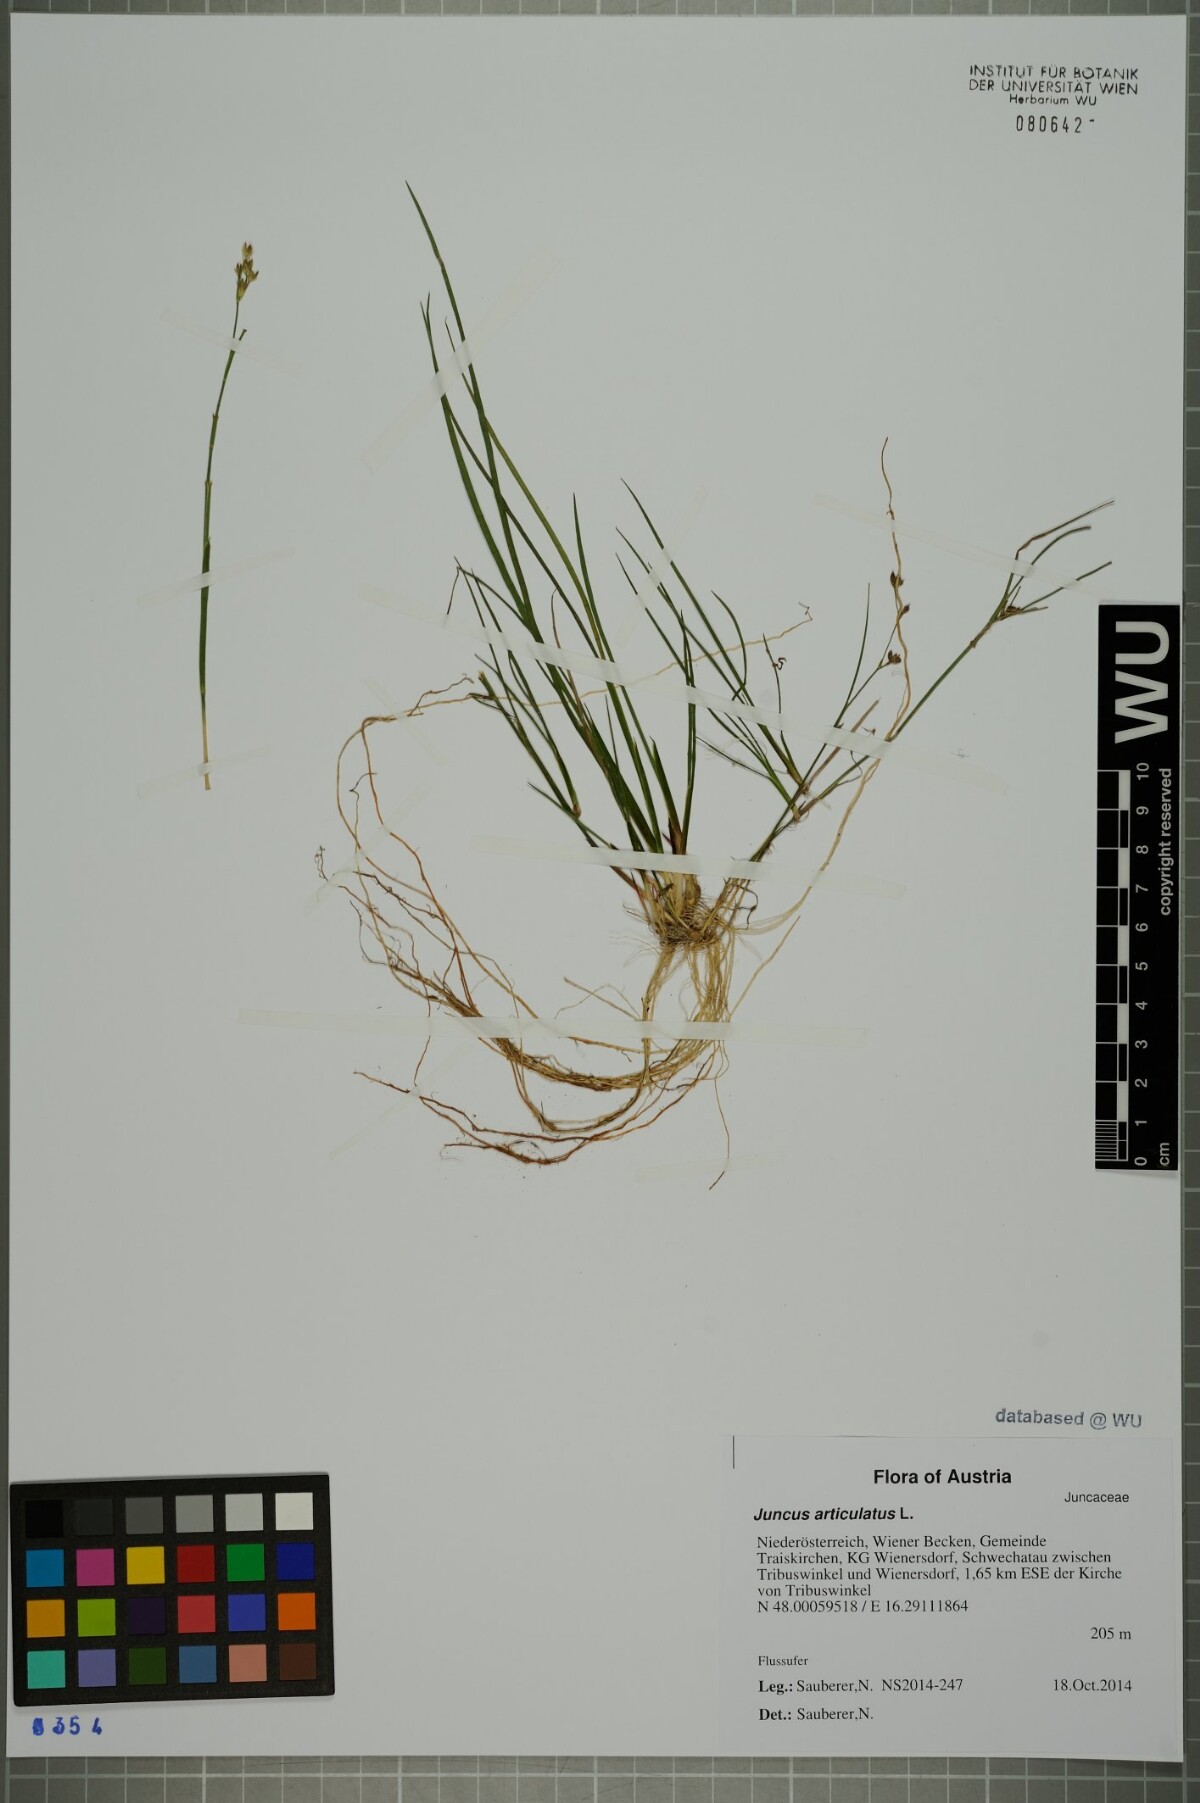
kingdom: Plantae
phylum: Tracheophyta
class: Liliopsida
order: Poales
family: Juncaceae
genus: Juncus
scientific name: Juncus articulatus
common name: Jointed rush
